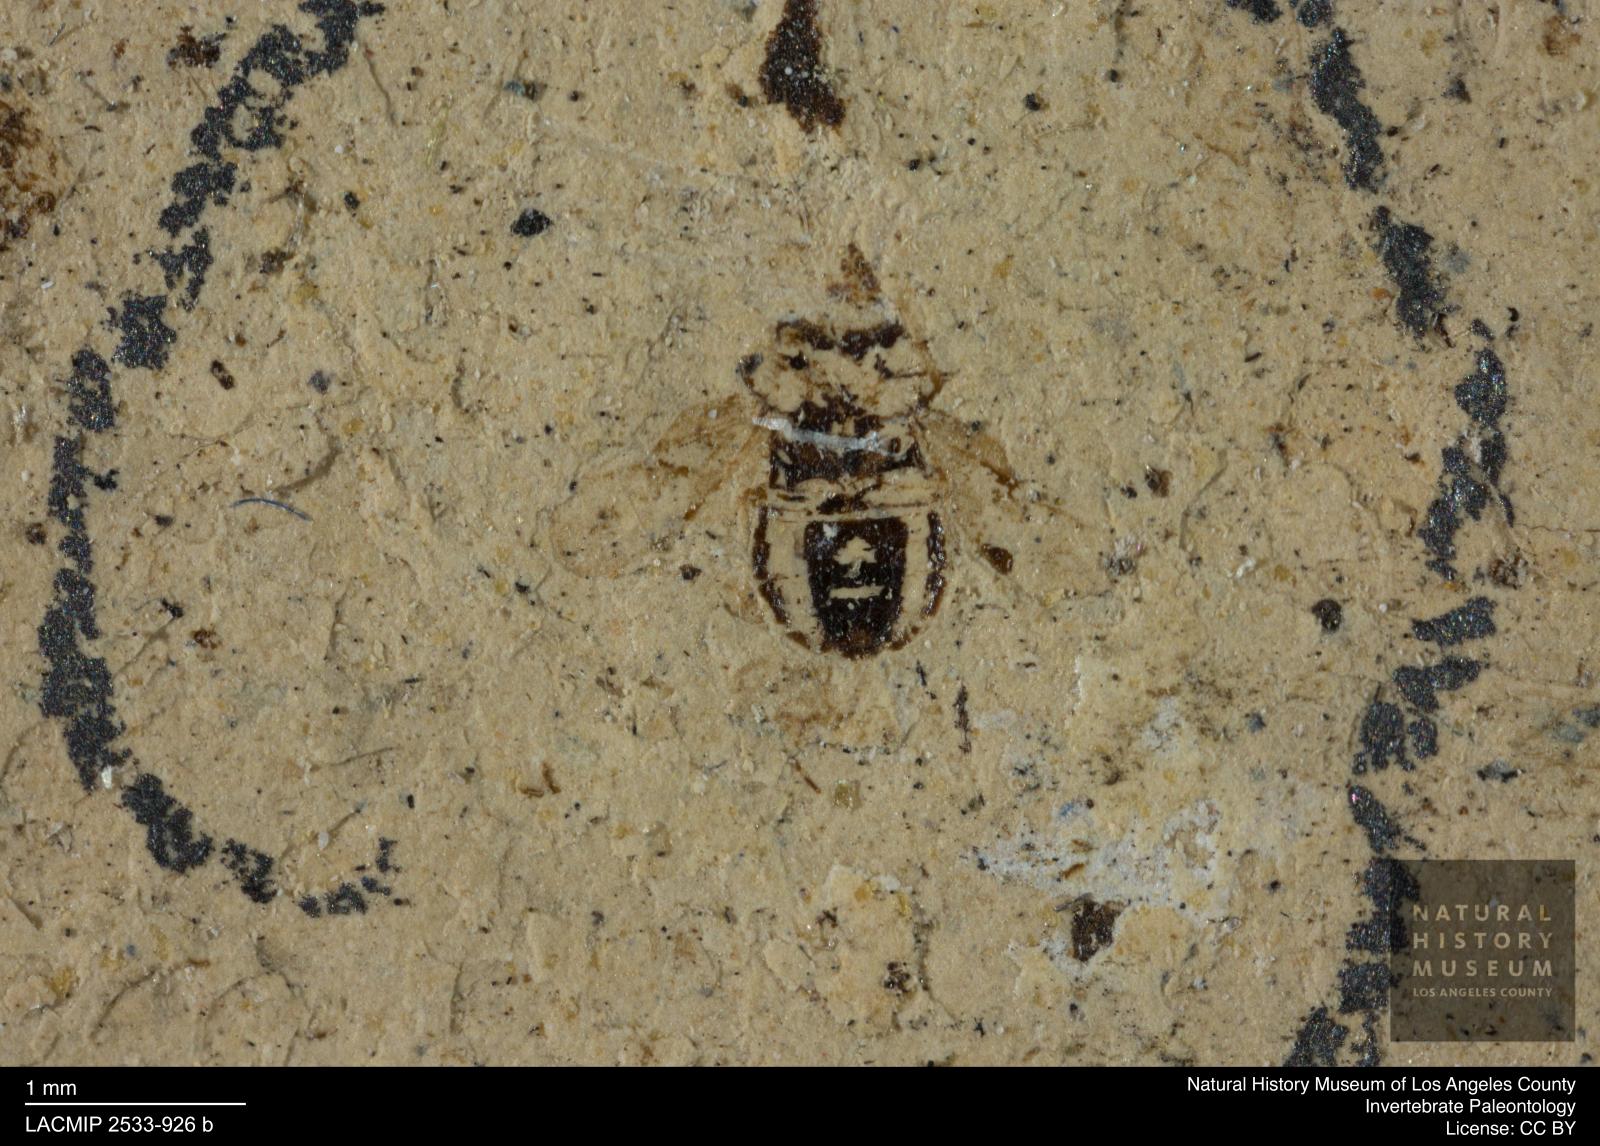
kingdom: Animalia
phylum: Arthropoda
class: Insecta
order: Hemiptera
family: Rhyparochromidae
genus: Pionosomus
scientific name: Pionosomus pusillus
